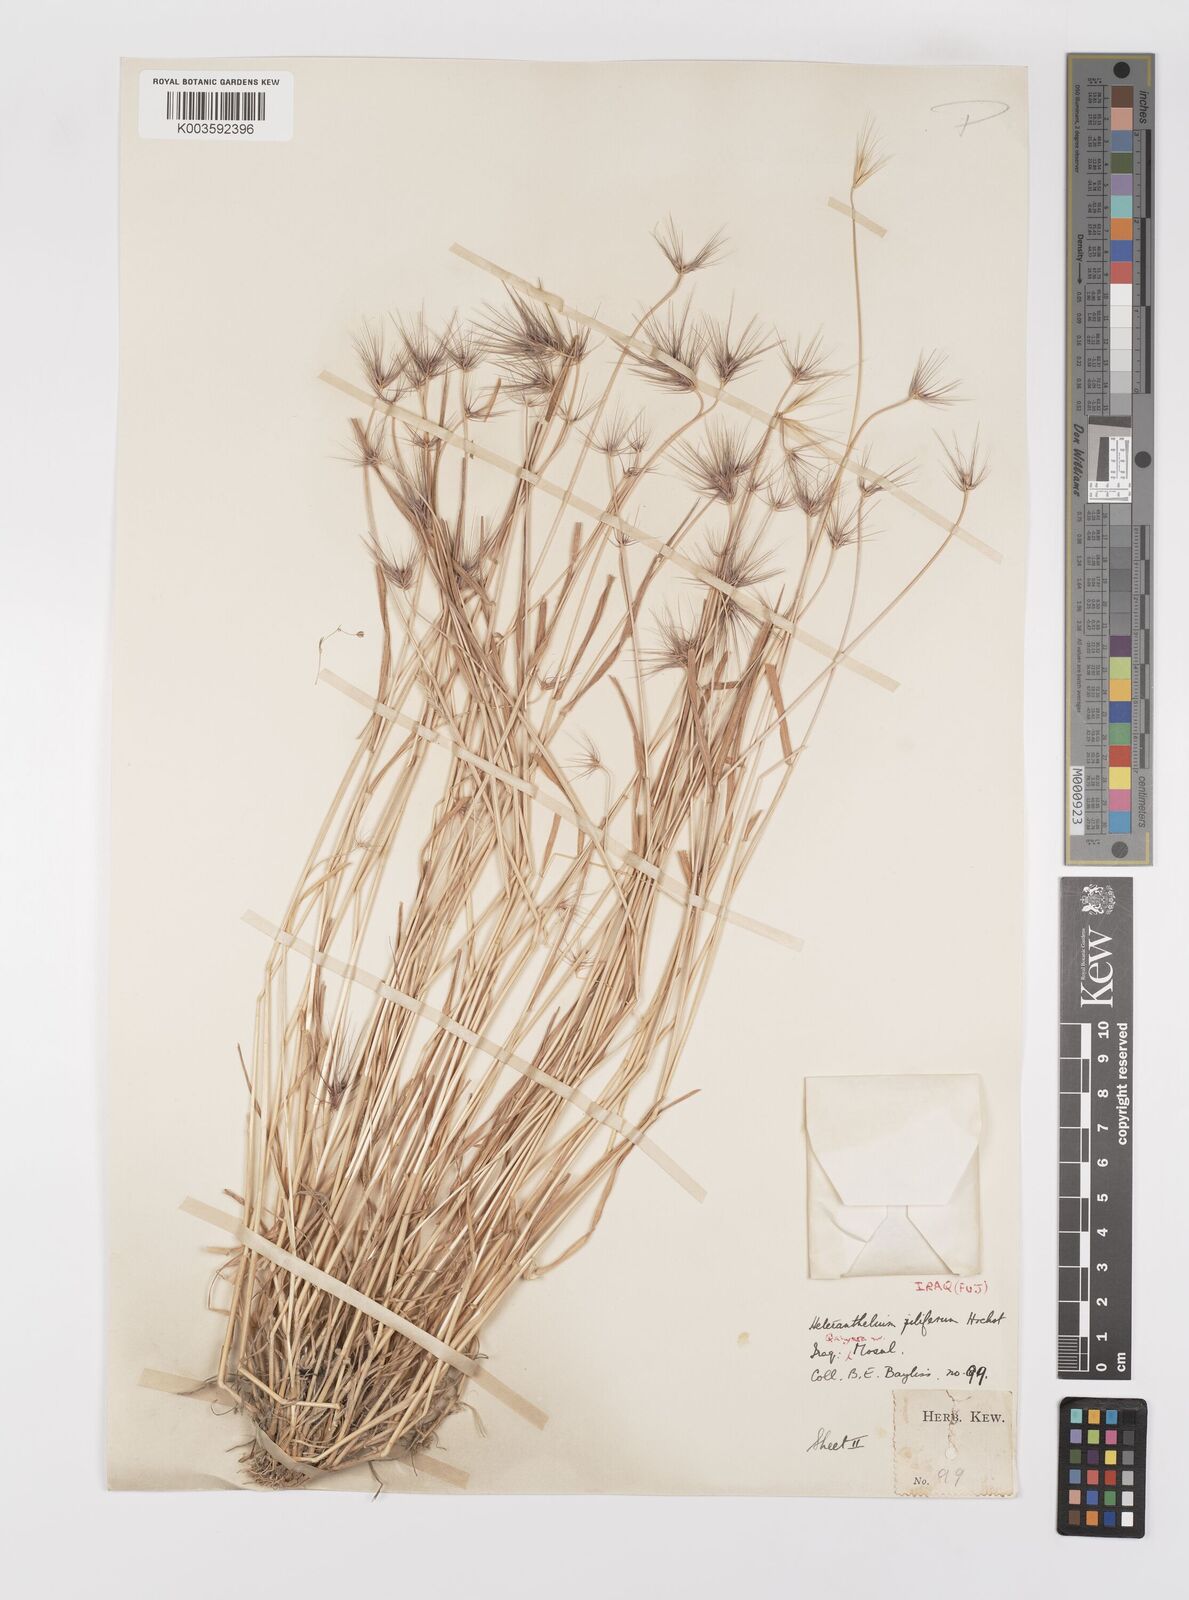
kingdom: Plantae
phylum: Tracheophyta
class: Liliopsida
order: Poales
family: Poaceae
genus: Heteranthelium
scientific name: Heteranthelium piliferum
